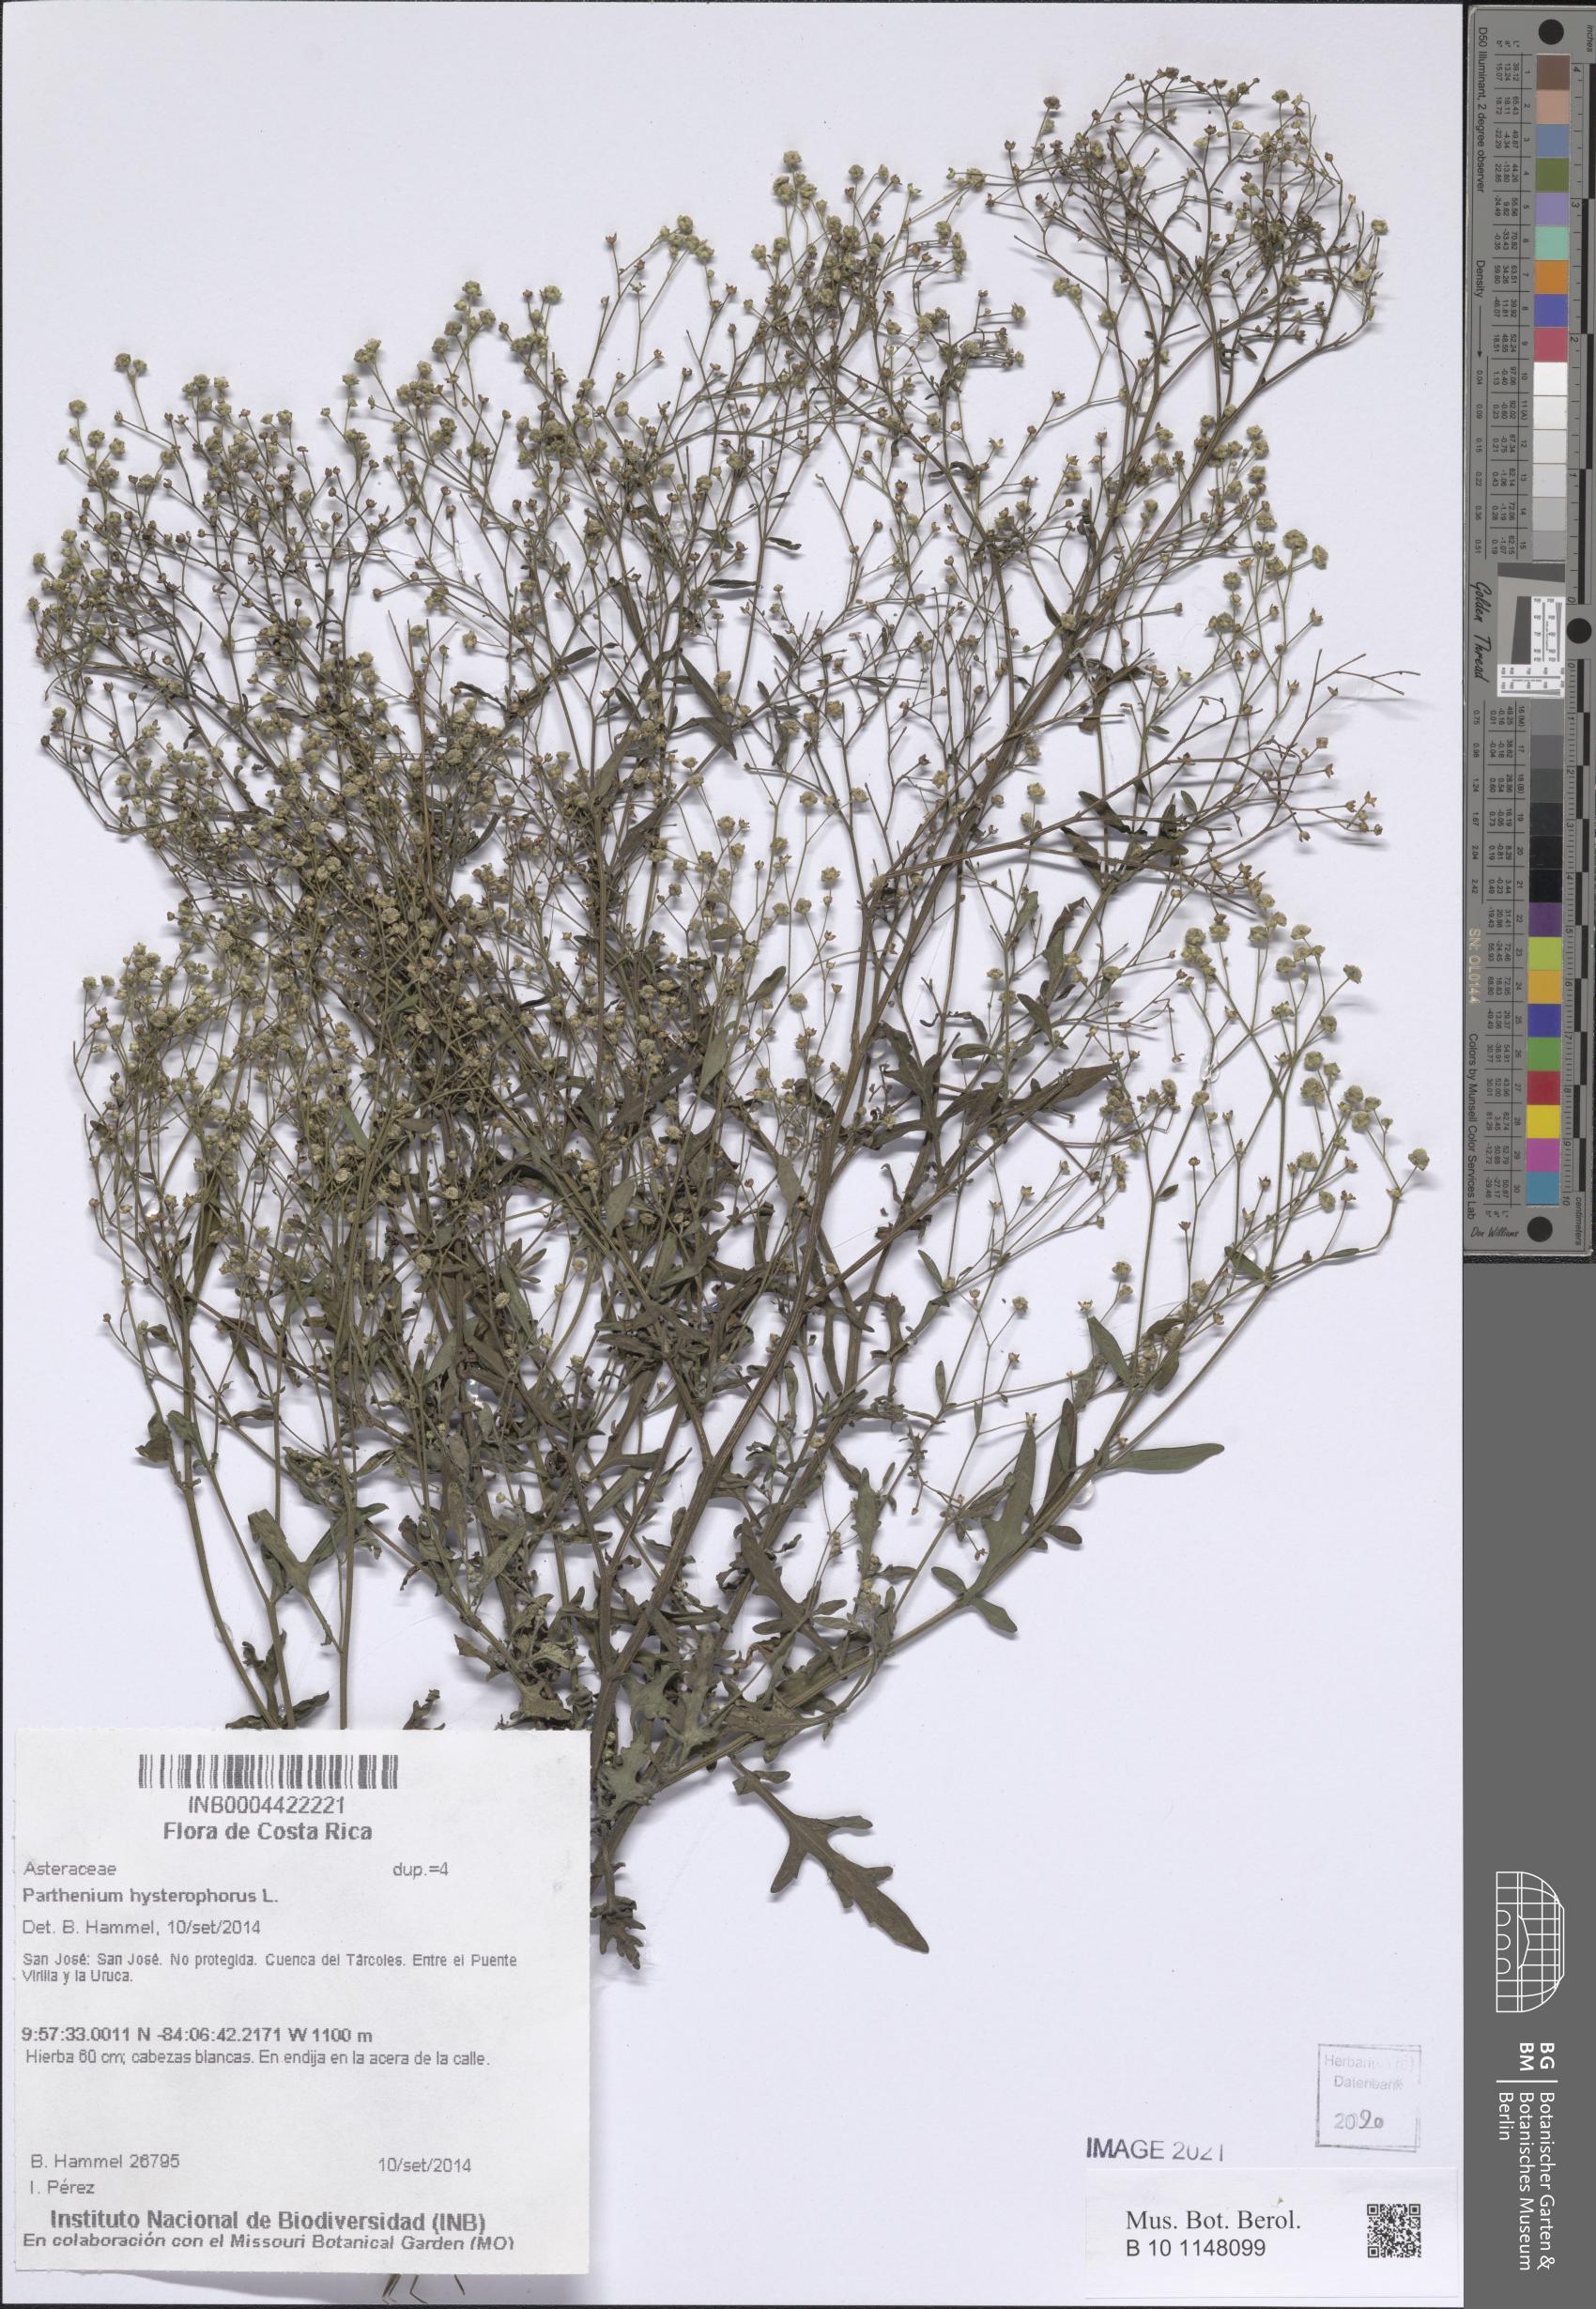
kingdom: Plantae
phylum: Tracheophyta
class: Magnoliopsida
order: Asterales
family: Asteraceae
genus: Parthenium
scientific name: Parthenium hysterophorus
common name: Santa maria feverfew
